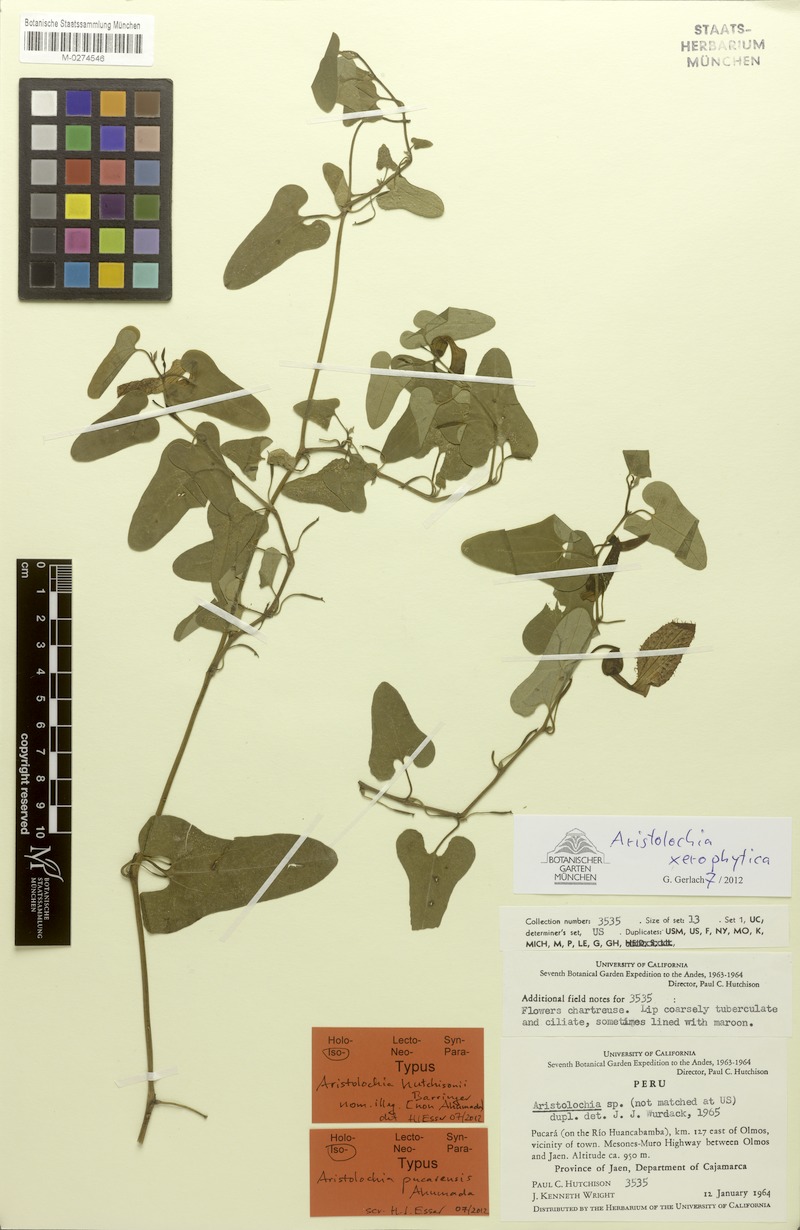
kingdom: Plantae
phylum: Tracheophyta
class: Magnoliopsida
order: Piperales
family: Aristolochiaceae
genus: Aristolochia
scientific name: Aristolochia xerophytica
